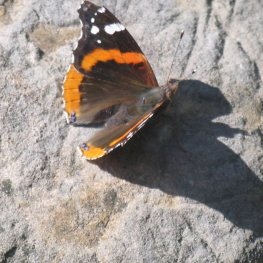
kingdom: Animalia
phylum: Arthropoda
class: Insecta
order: Lepidoptera
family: Nymphalidae
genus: Vanessa
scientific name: Vanessa atalanta
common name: Red Admiral
